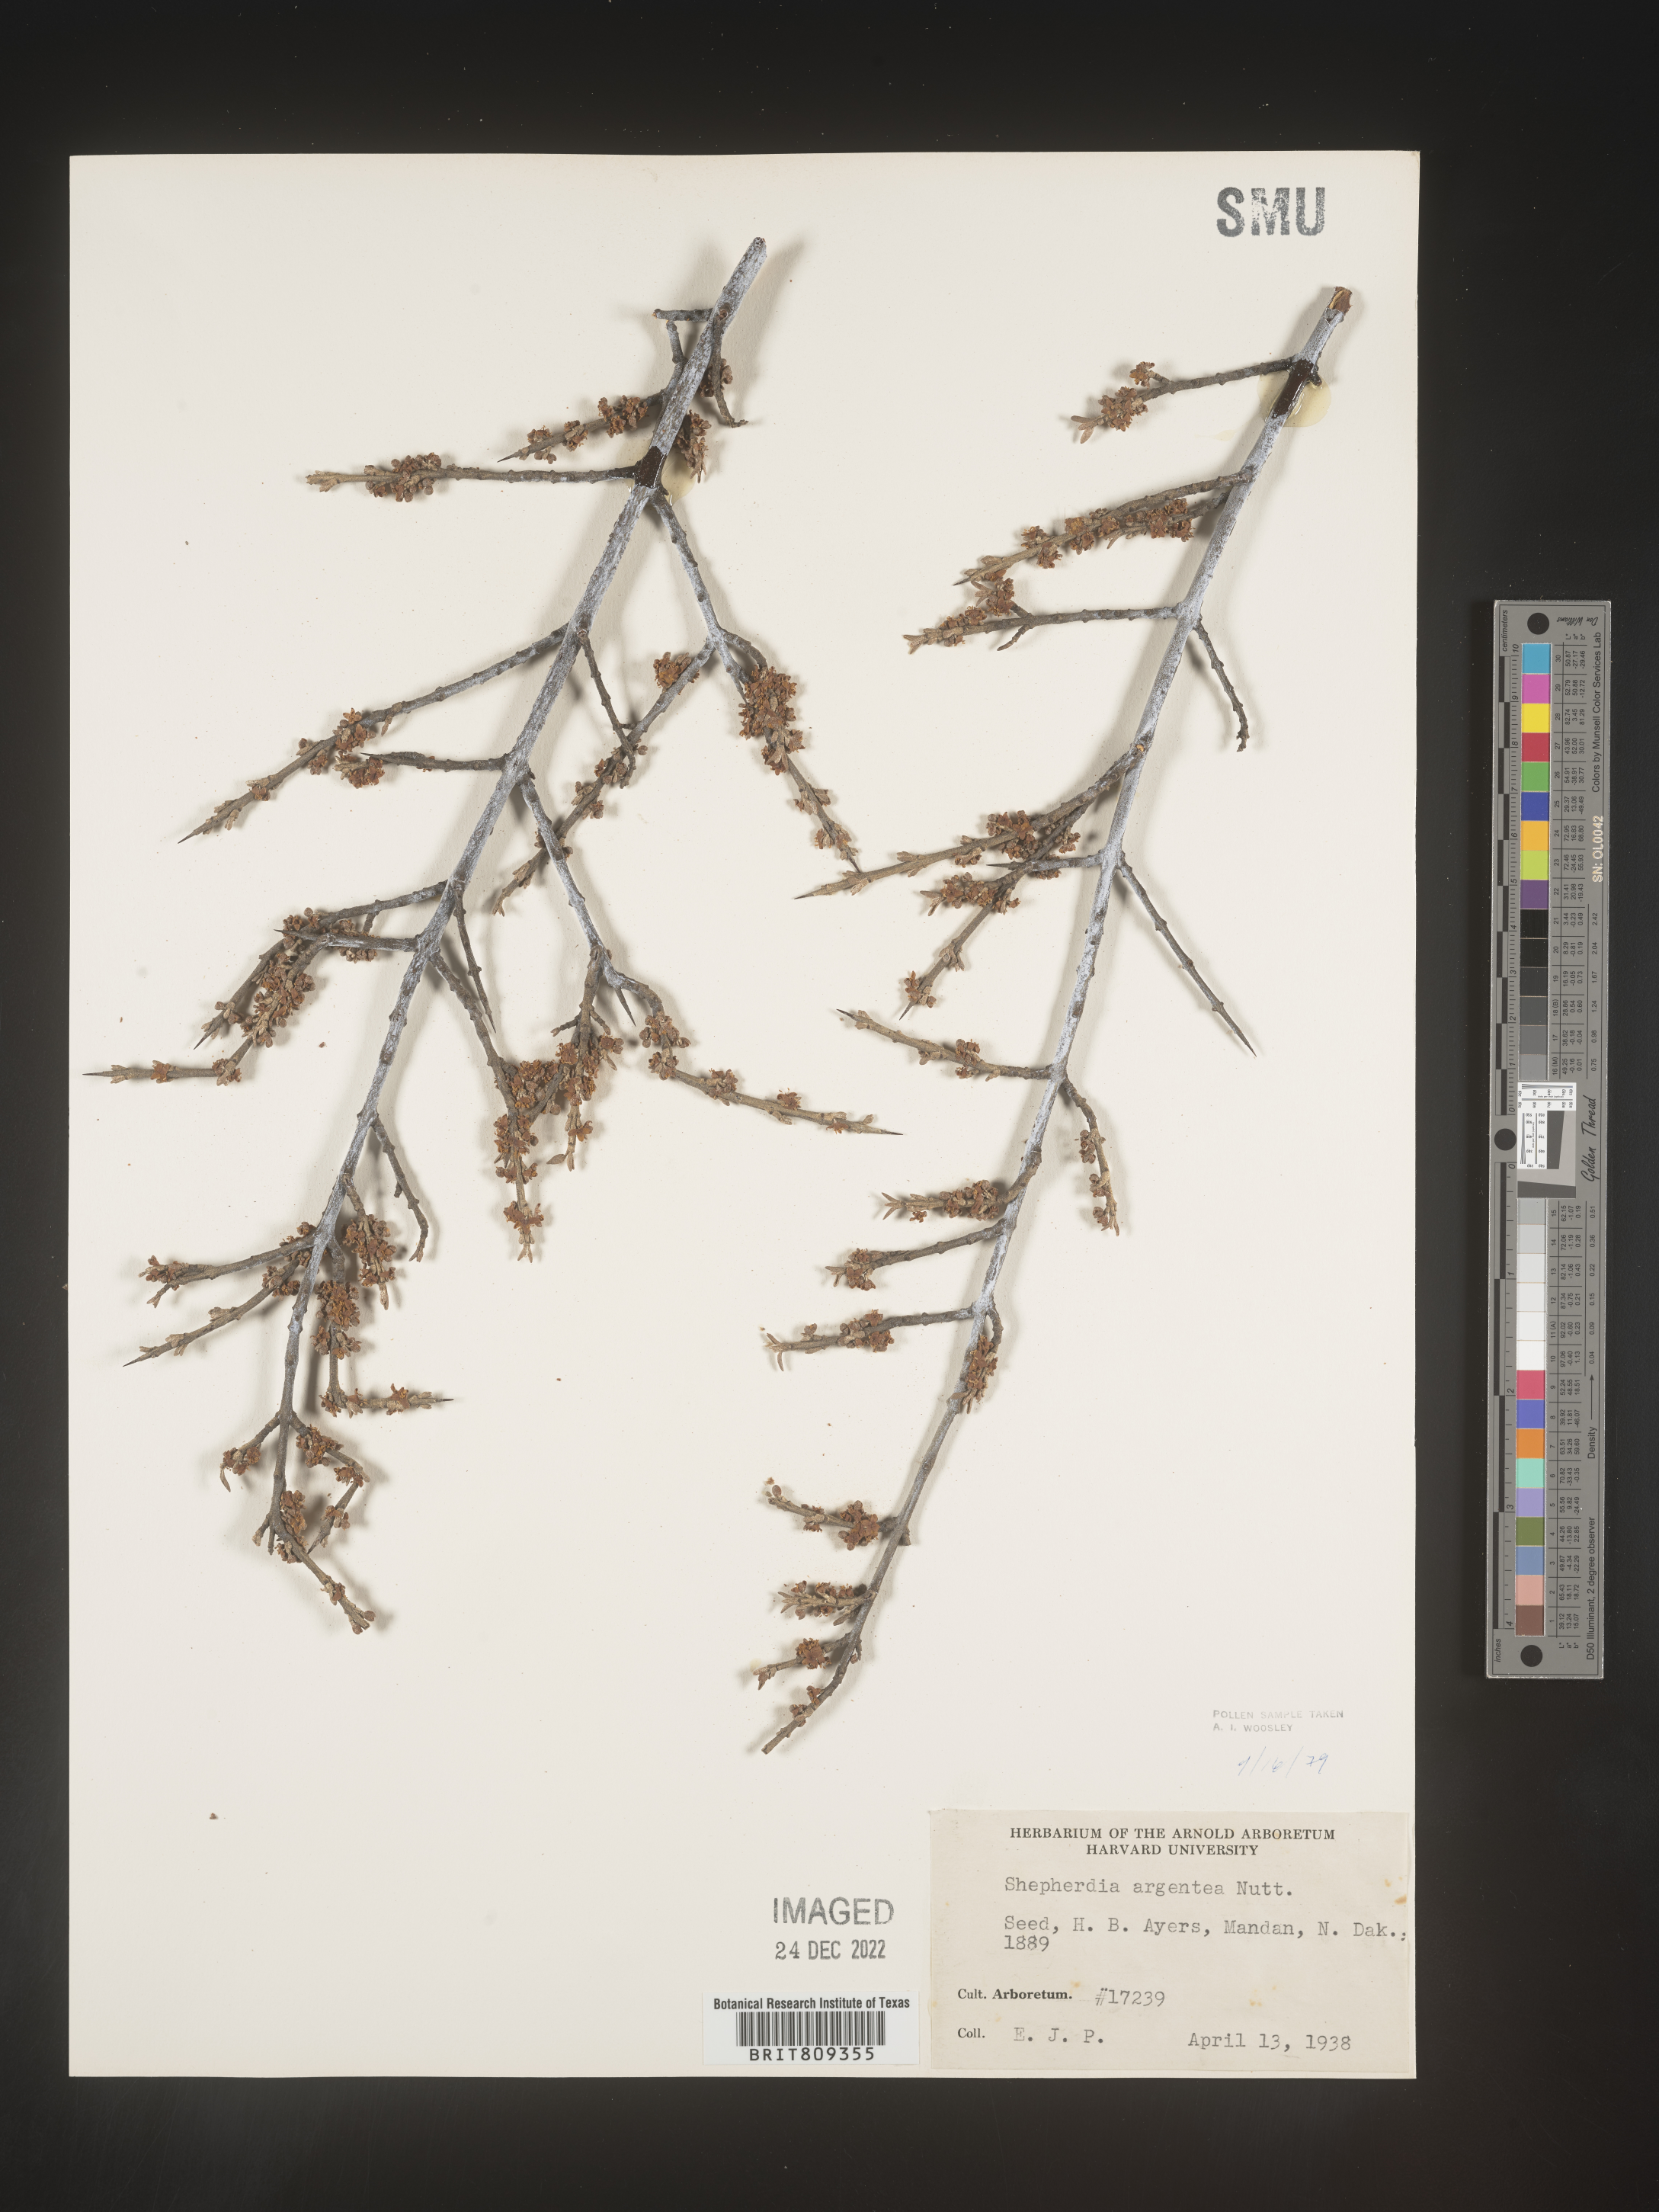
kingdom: Plantae
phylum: Tracheophyta
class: Magnoliopsida
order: Rosales
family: Elaeagnaceae
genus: Shepherdia
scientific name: Shepherdia argentea
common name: Silver buffaloberry
